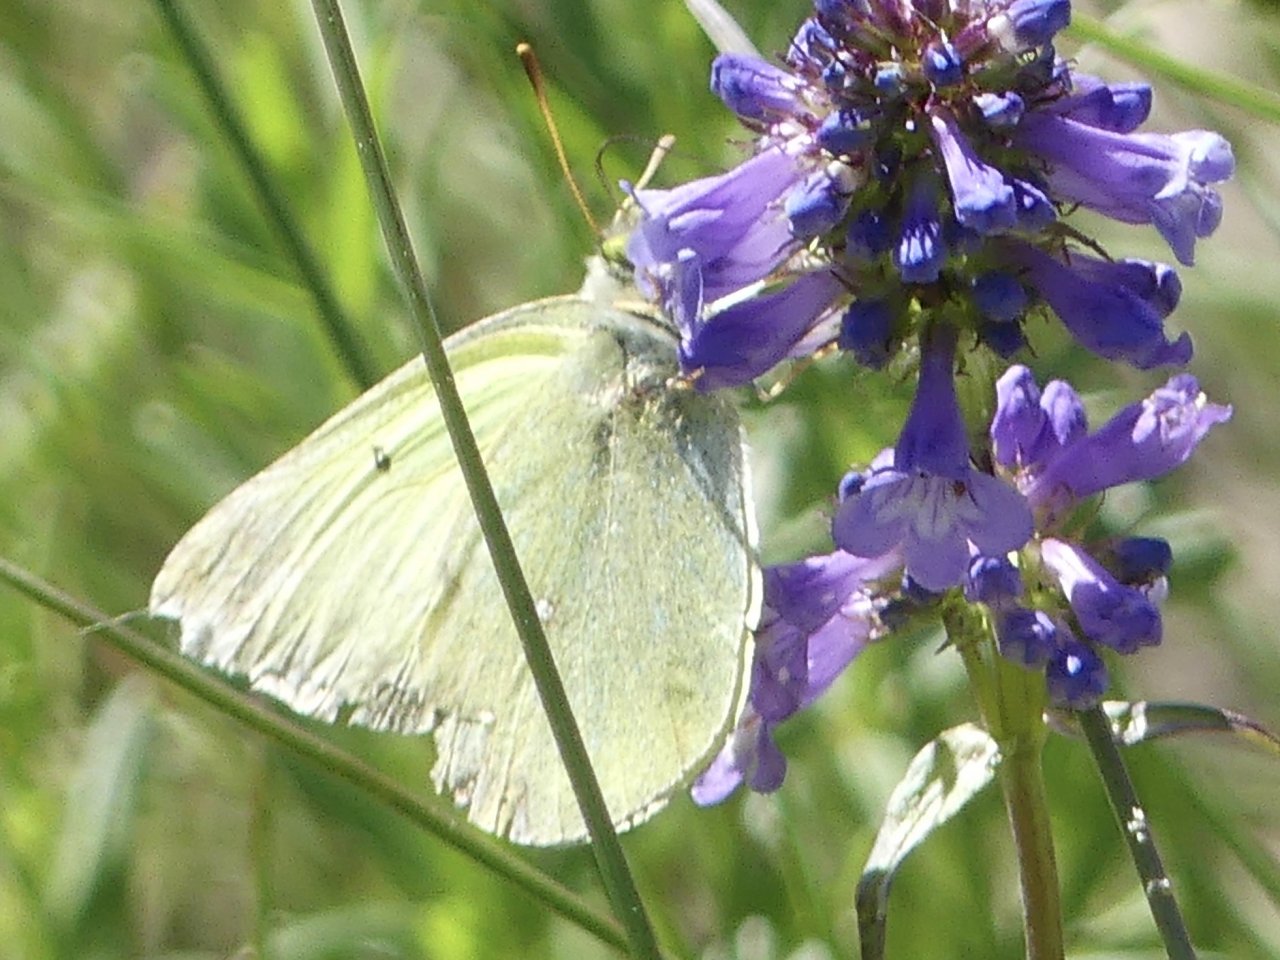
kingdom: Animalia
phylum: Arthropoda
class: Insecta
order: Lepidoptera
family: Pieridae
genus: Colias
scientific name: Colias
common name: Clouded Yellows
